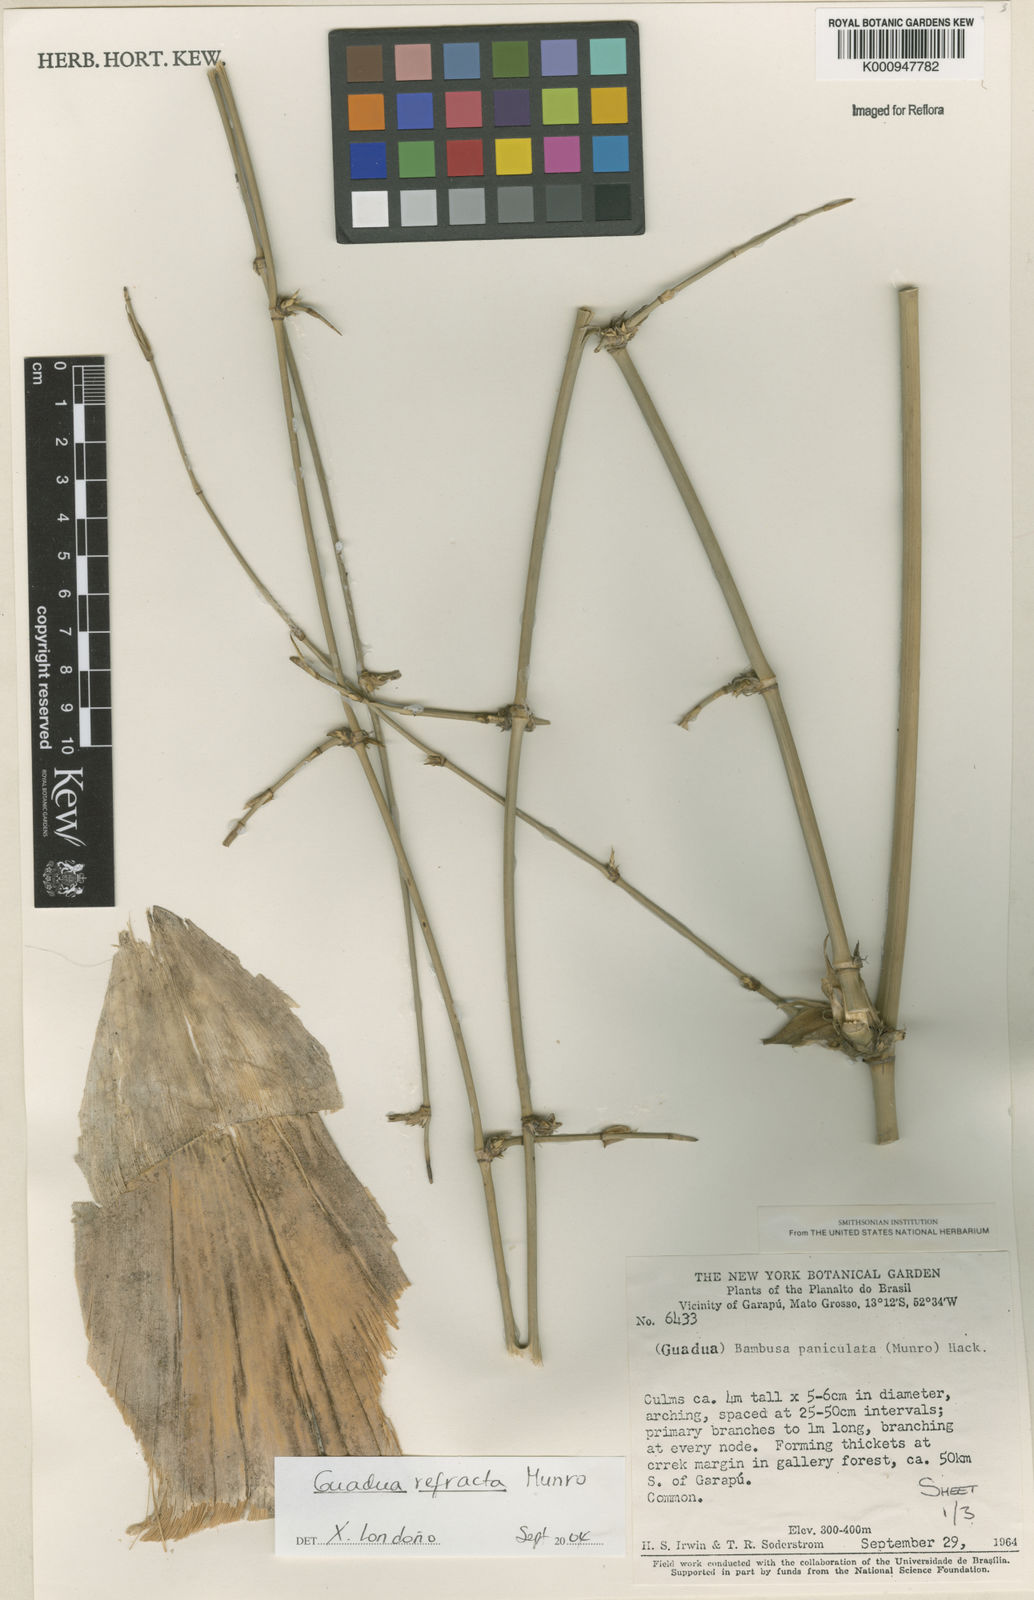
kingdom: Plantae
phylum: Tracheophyta
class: Liliopsida
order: Poales
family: Poaceae
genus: Guadua
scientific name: Guadua
